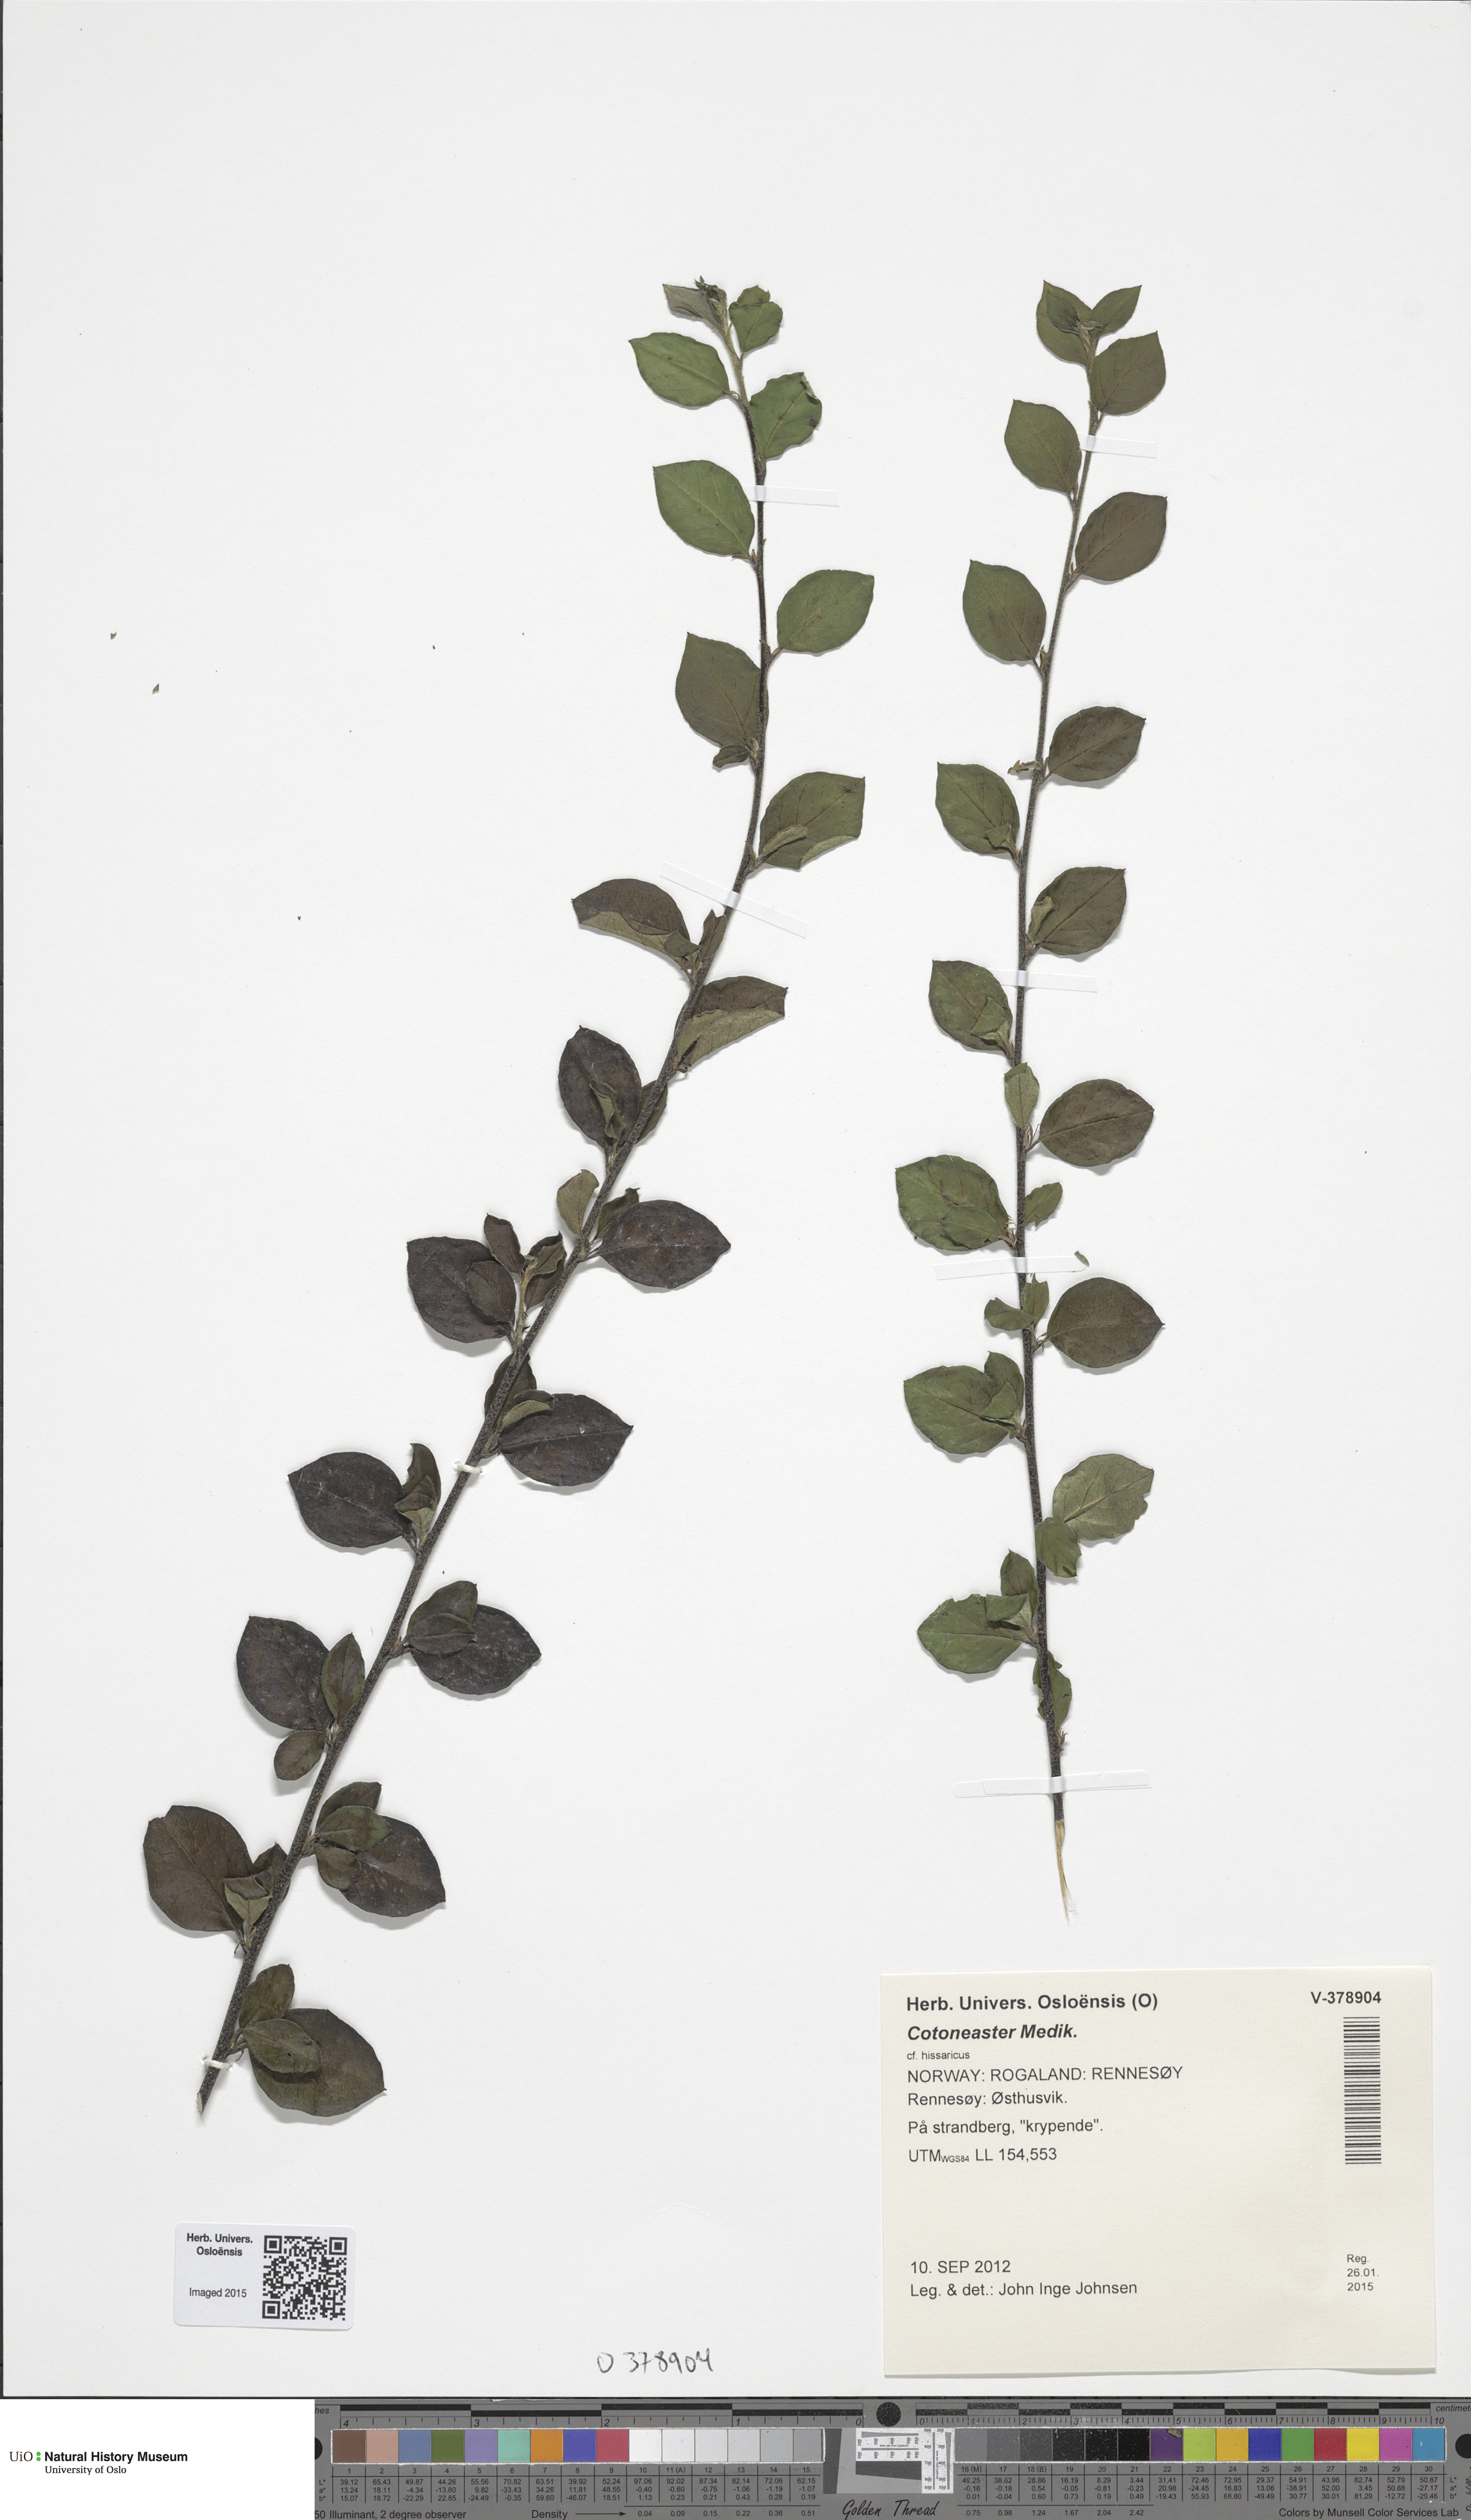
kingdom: Plantae
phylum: Tracheophyta
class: Magnoliopsida
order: Rosales
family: Rosaceae
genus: Cotoneaster
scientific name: Cotoneaster
